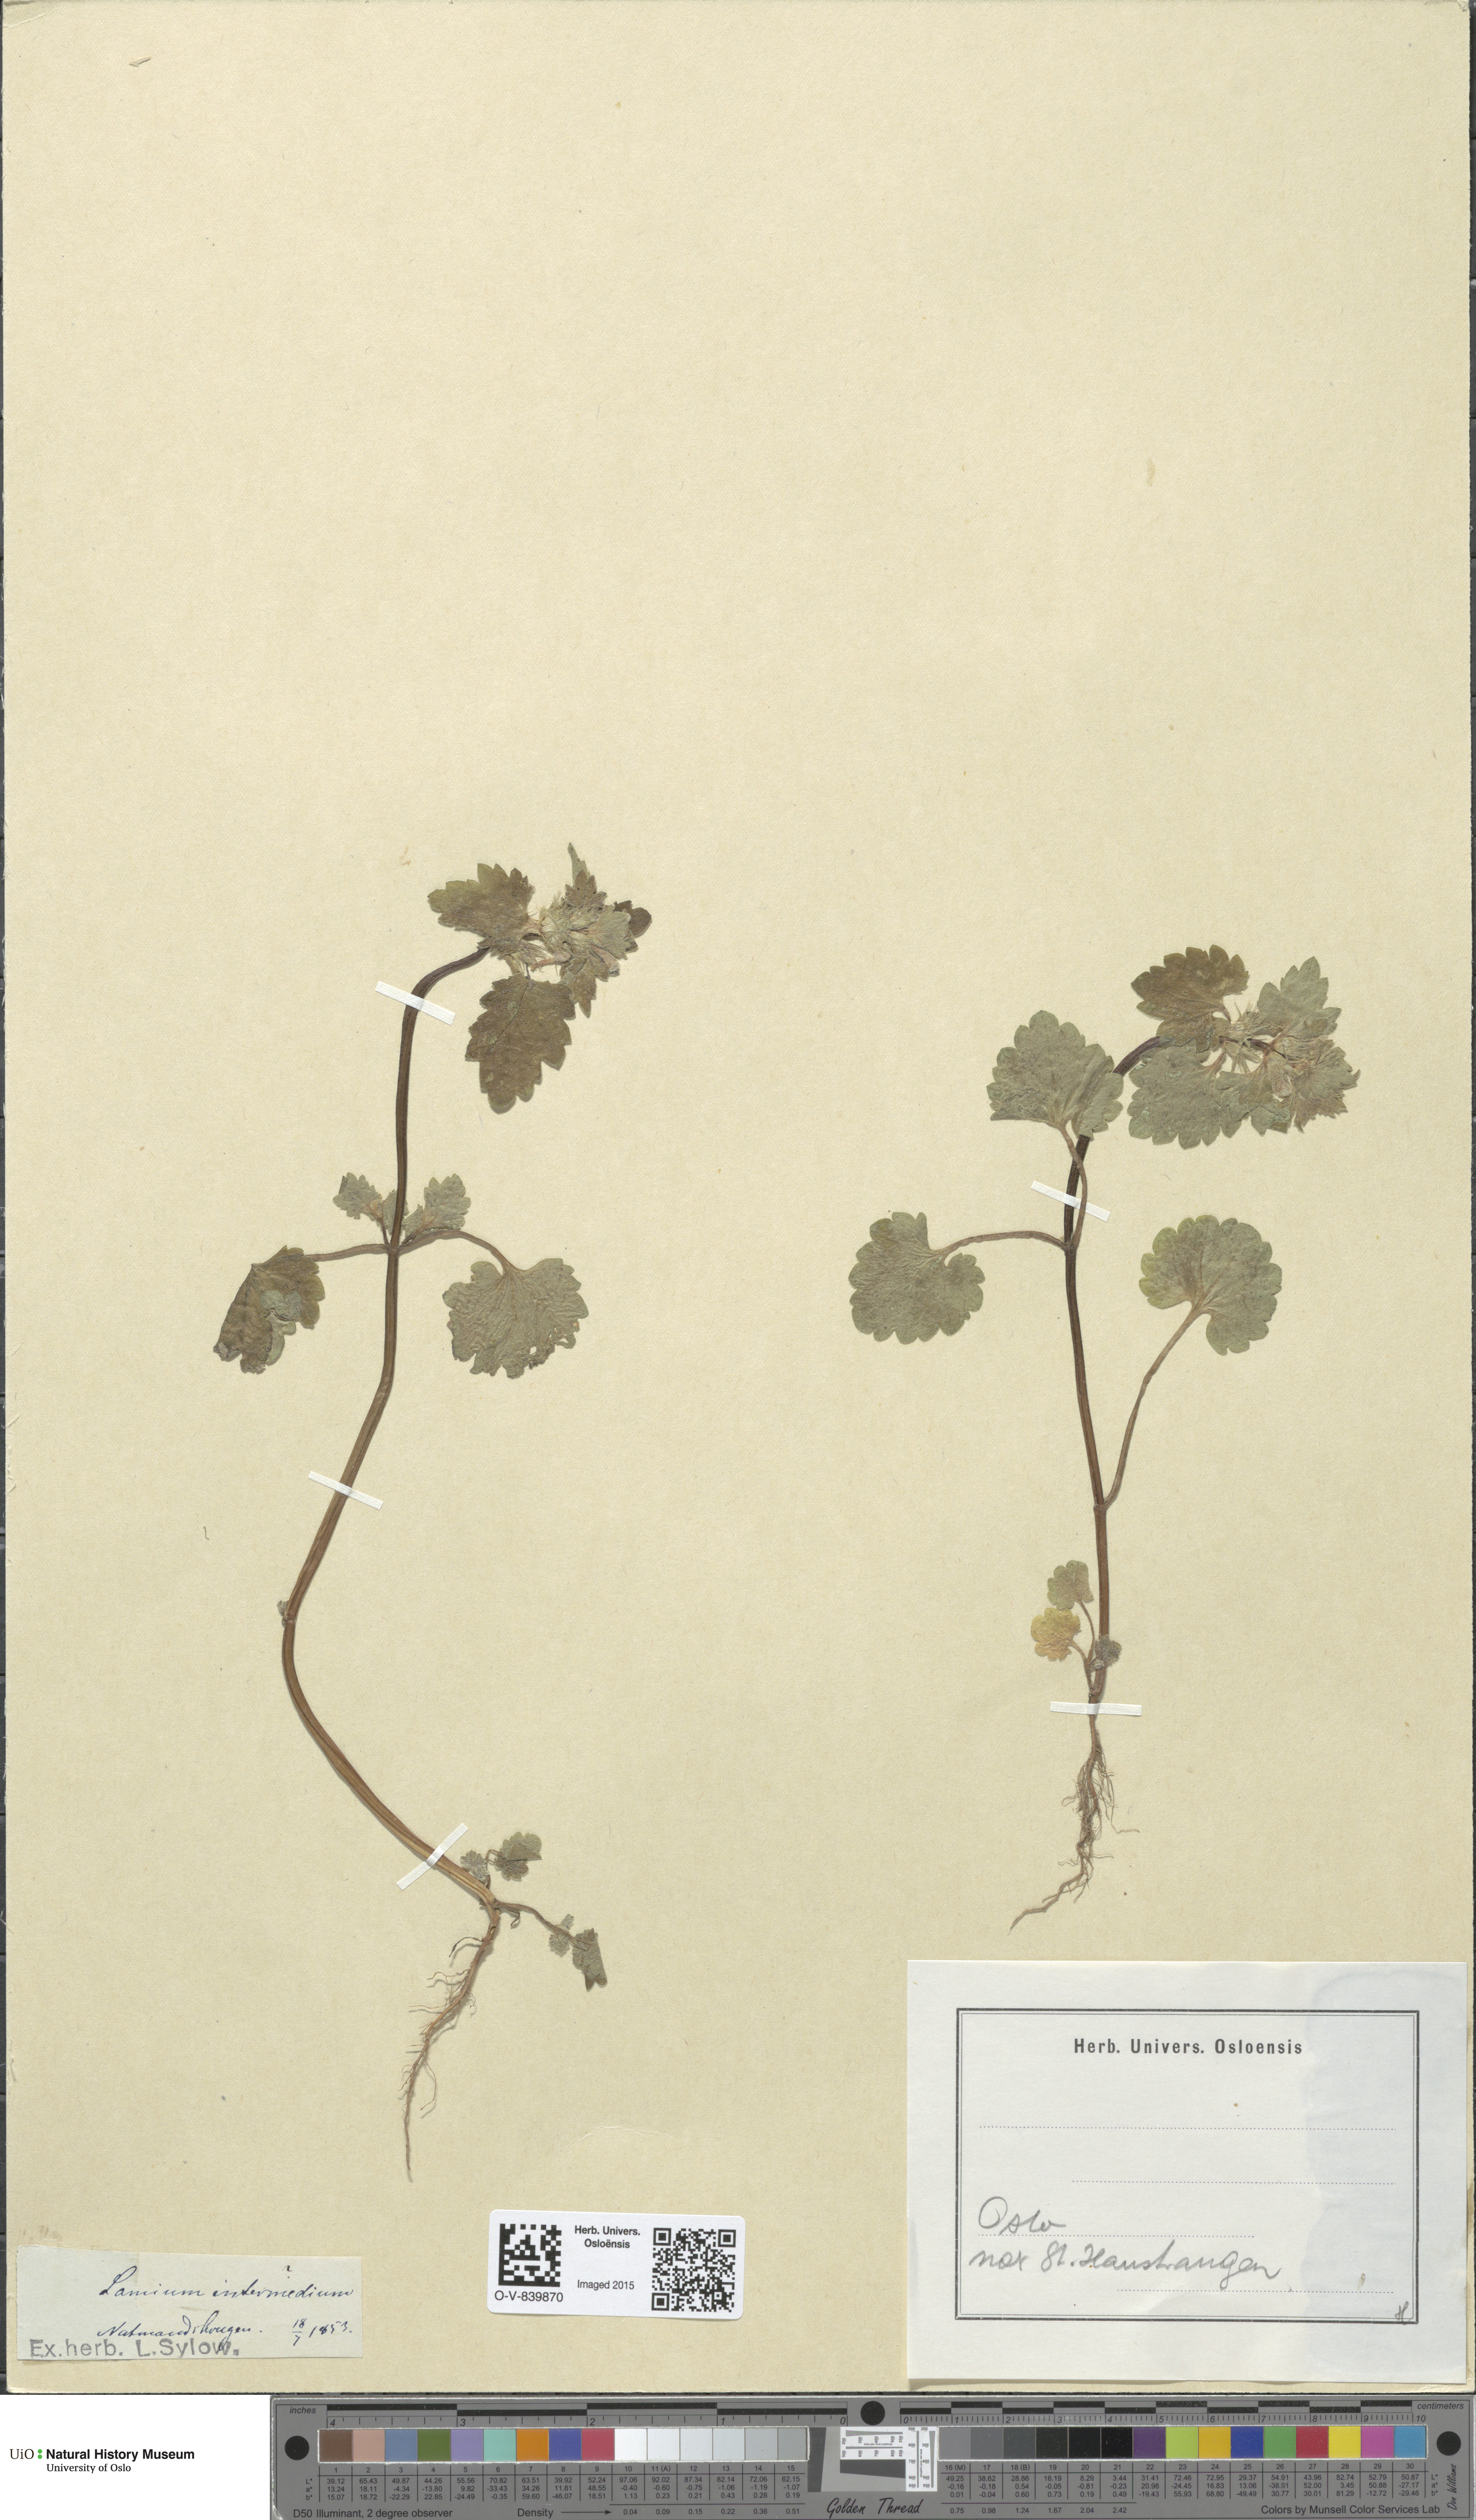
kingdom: Plantae
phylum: Tracheophyta
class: Magnoliopsida
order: Lamiales
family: Lamiaceae
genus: Lamium
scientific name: Lamium confertum
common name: Northern dead-nettle
